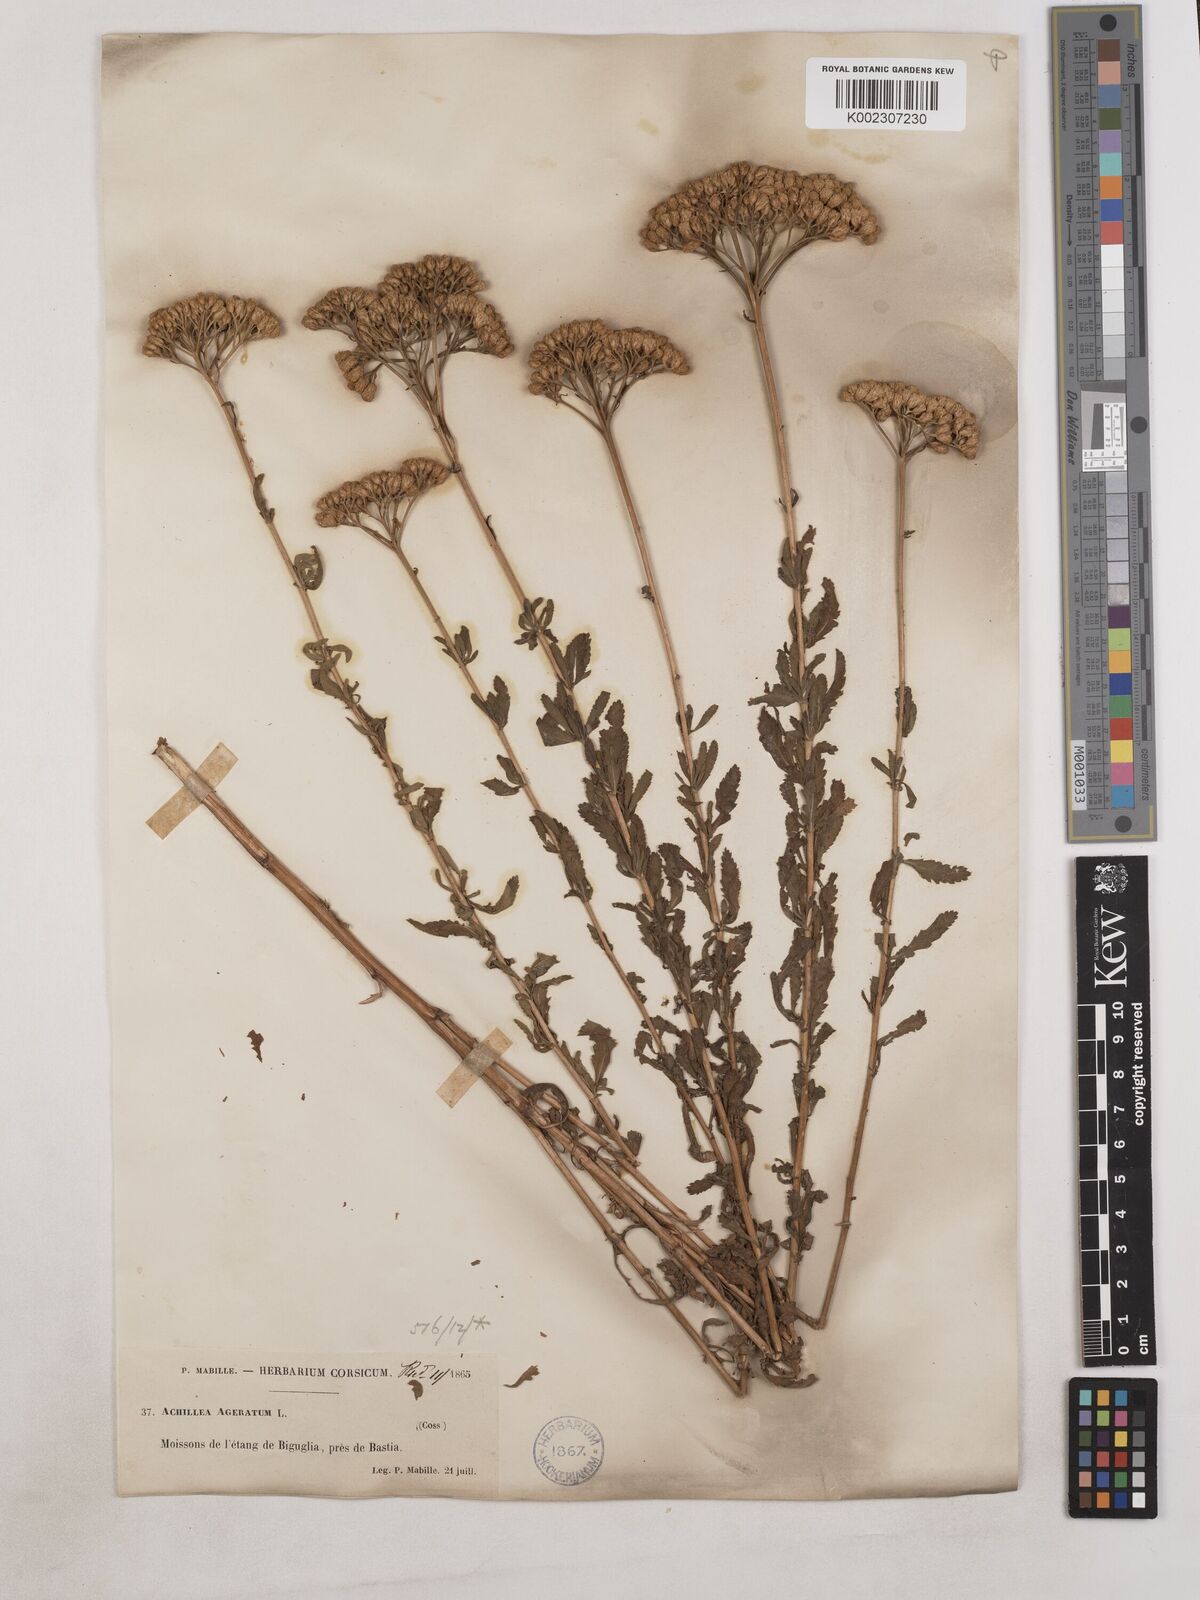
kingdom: Plantae
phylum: Tracheophyta
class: Magnoliopsida
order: Asterales
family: Asteraceae
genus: Achillea
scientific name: Achillea ageratum
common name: Sweet-nancy
